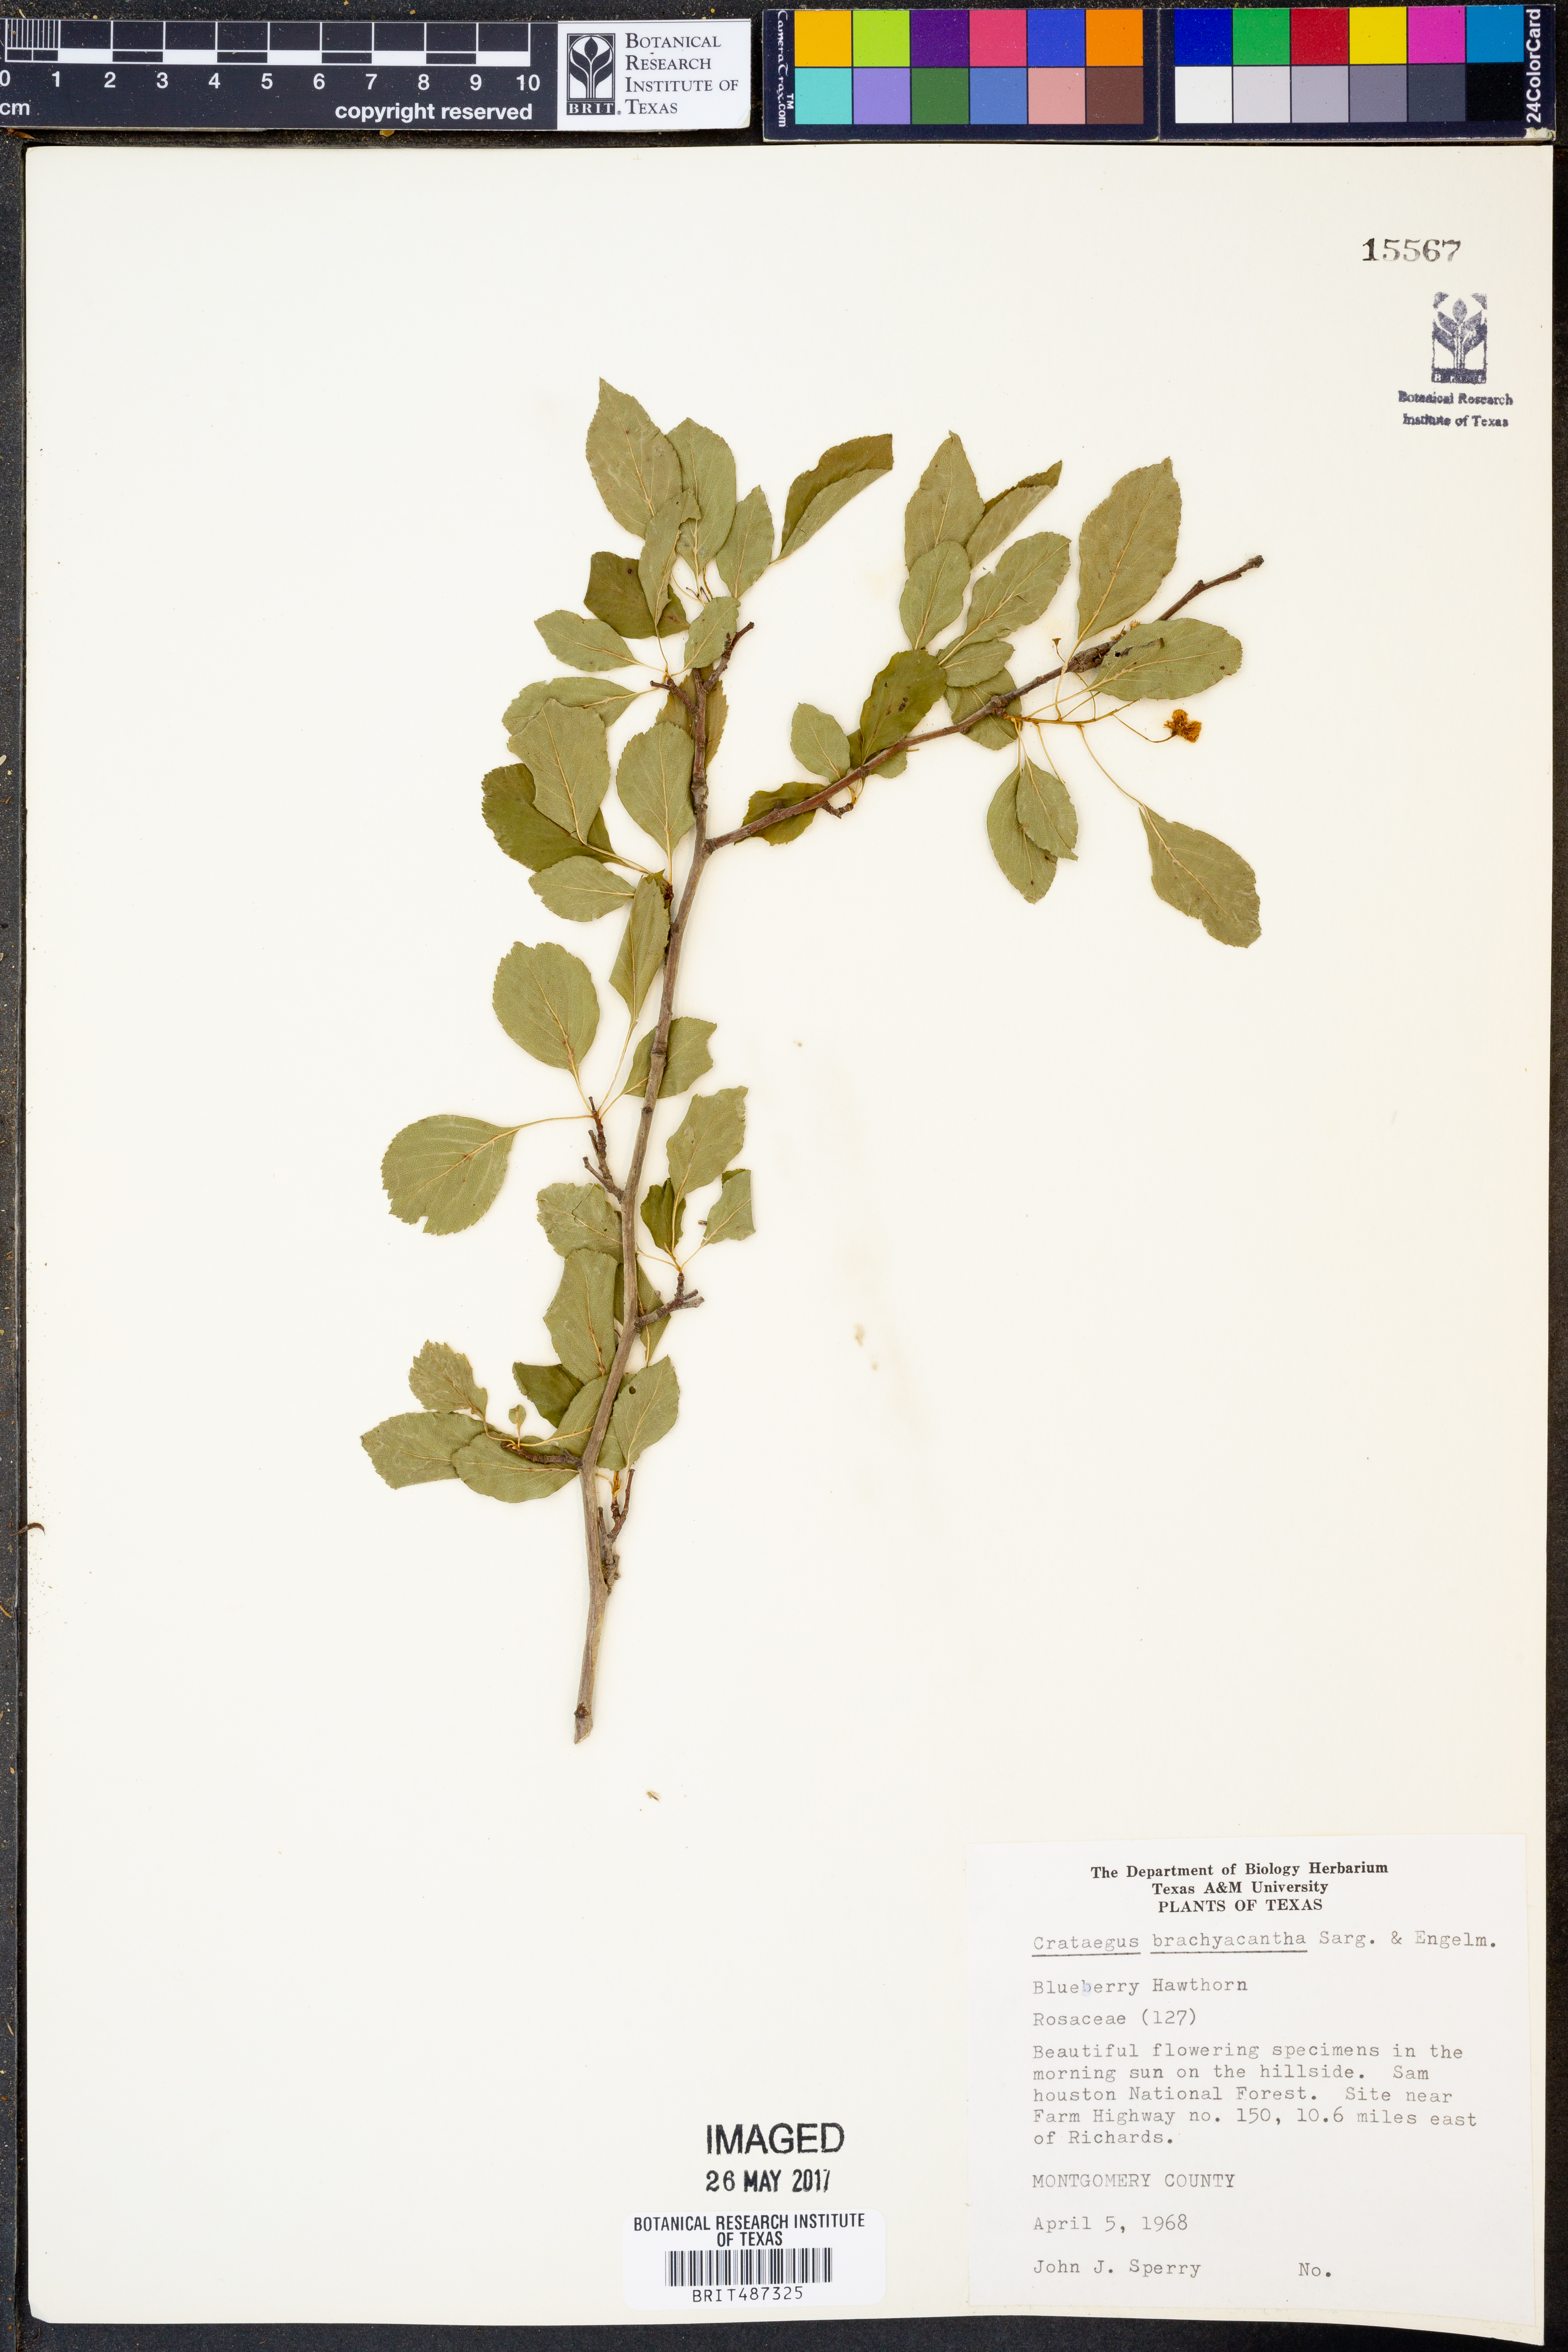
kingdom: Plantae
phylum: Tracheophyta
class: Magnoliopsida
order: Rosales
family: Rosaceae
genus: Crataegus
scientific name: Crataegus brachyacantha
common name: Blueberry-hawthorn
